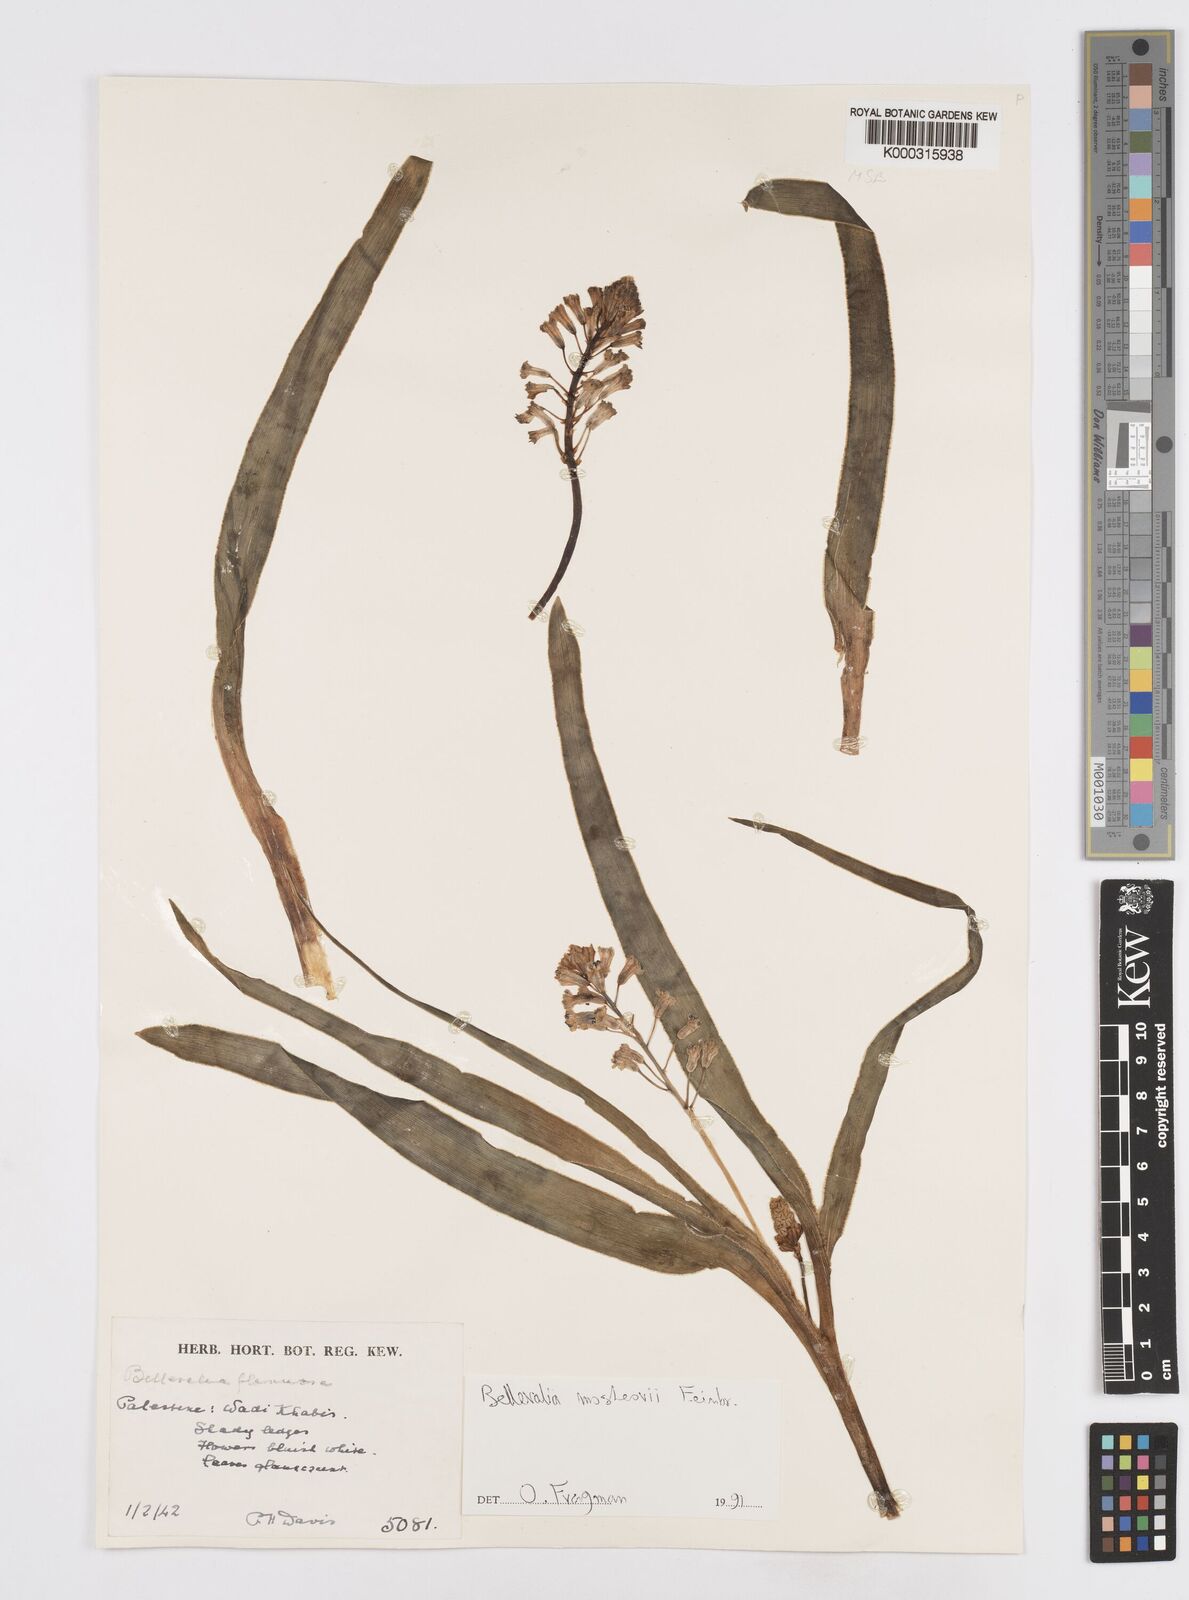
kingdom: Plantae
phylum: Tracheophyta
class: Liliopsida
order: Asparagales
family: Asparagaceae
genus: Bellevalia
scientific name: Bellevalia mosheovii
